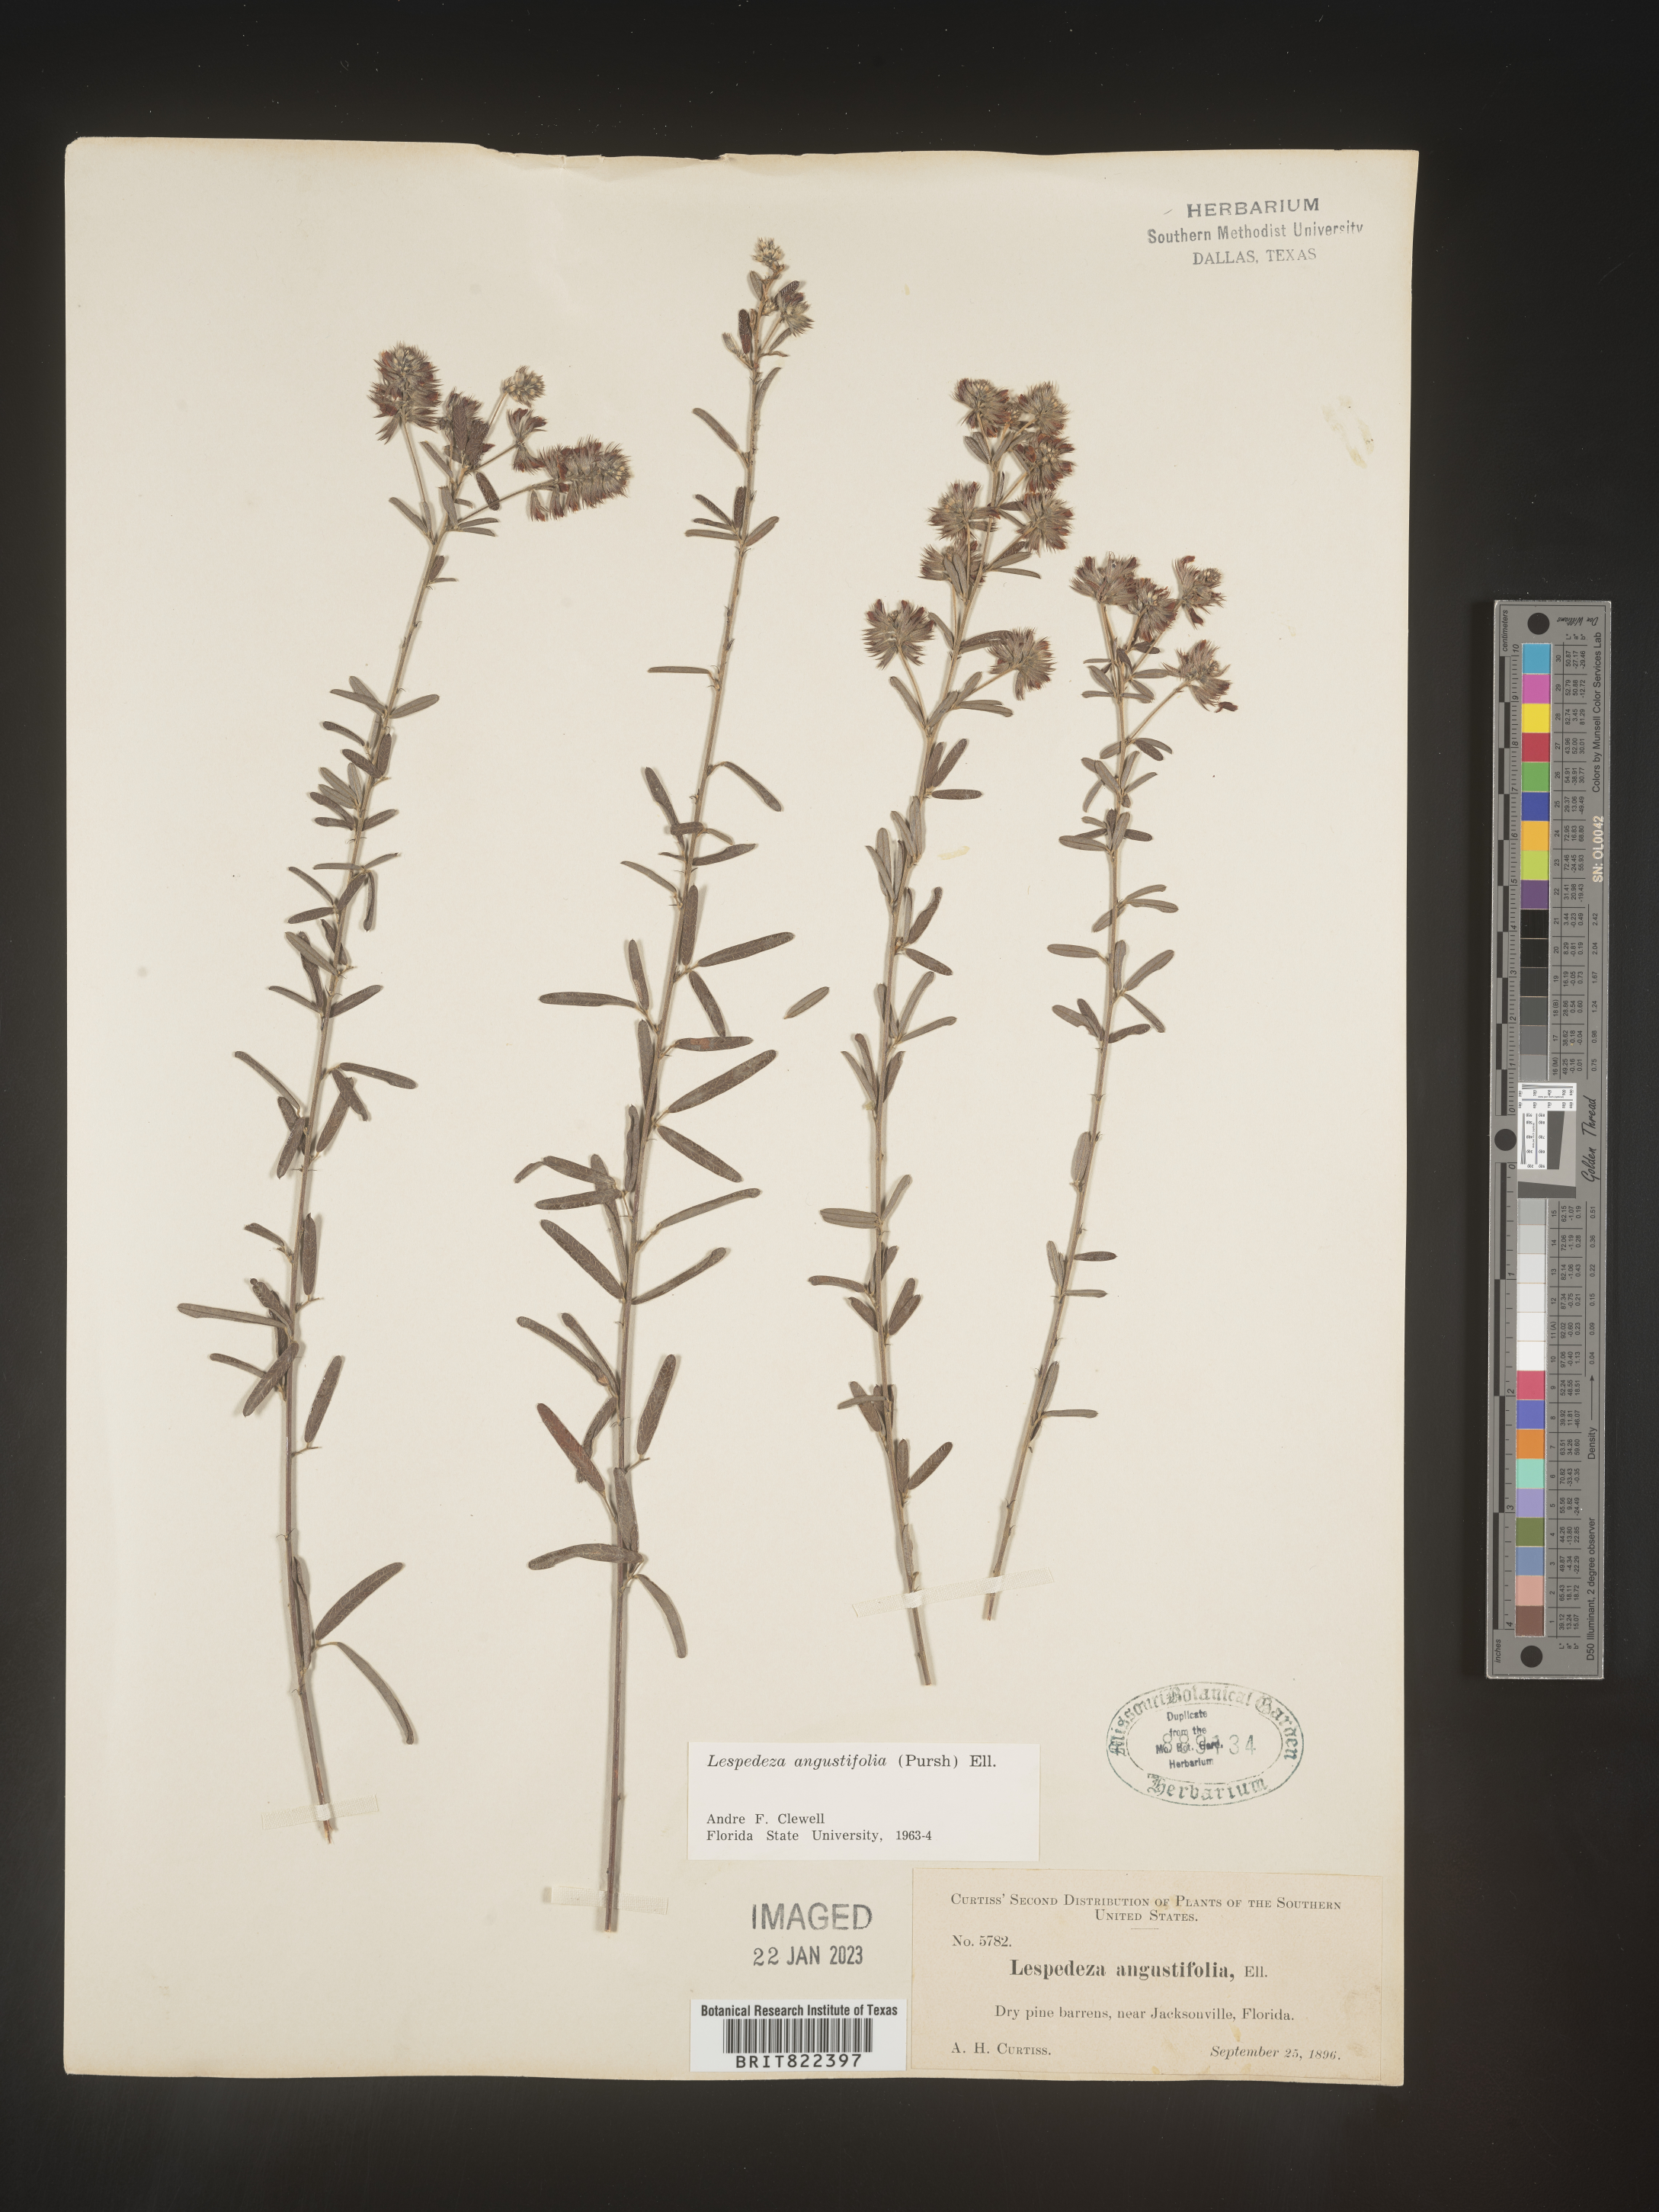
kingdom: Plantae
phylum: Tracheophyta
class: Magnoliopsida
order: Fabales
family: Fabaceae
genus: Lespedeza
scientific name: Lespedeza
